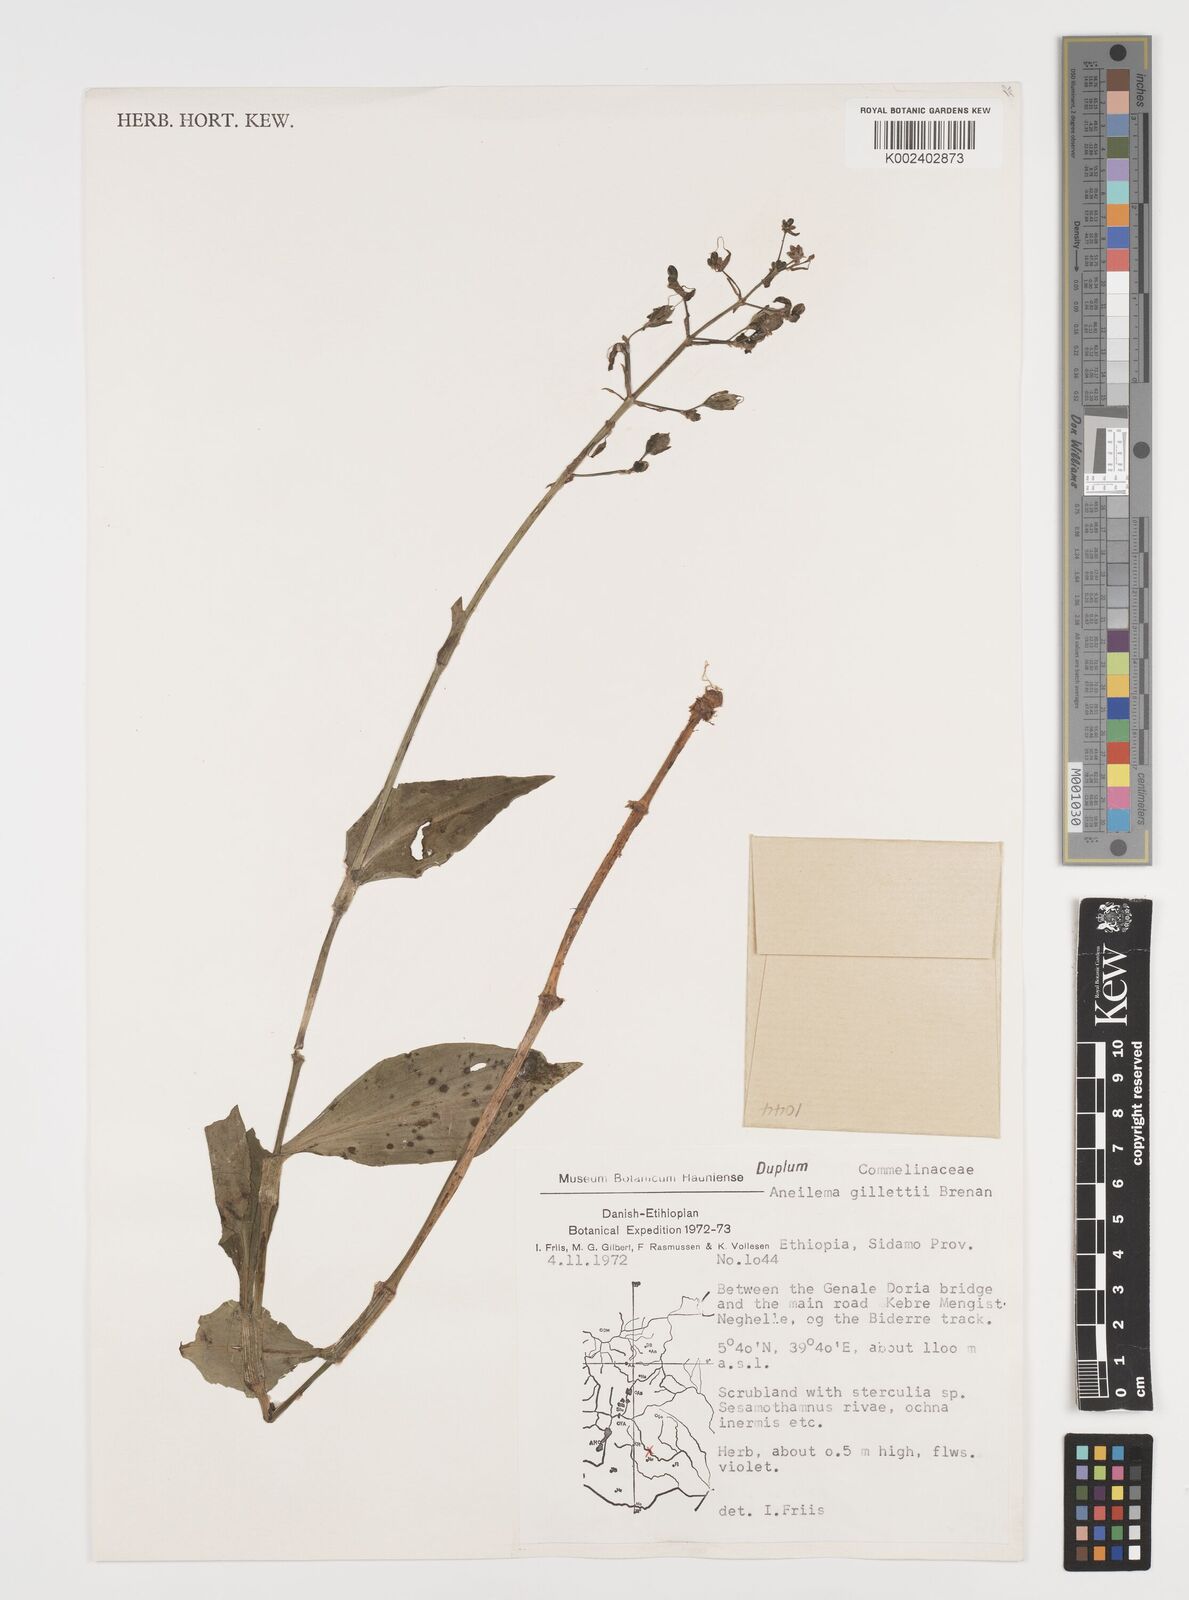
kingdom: Plantae
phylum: Tracheophyta
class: Liliopsida
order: Commelinales
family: Commelinaceae
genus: Aneilema
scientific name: Aneilema gillettii
